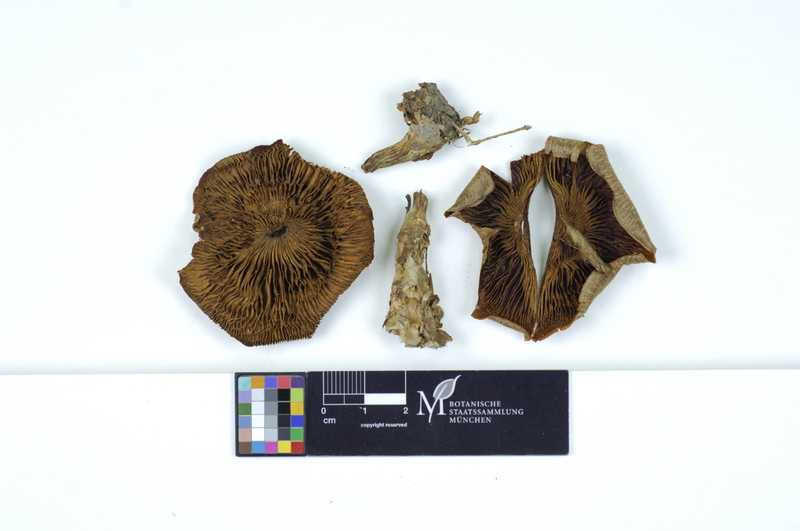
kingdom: Fungi
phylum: Basidiomycota
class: Agaricomycetes
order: Agaricales
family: Tricholomataceae
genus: Clitocybe
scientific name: Clitocybe odora
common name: Aniseed funnel
